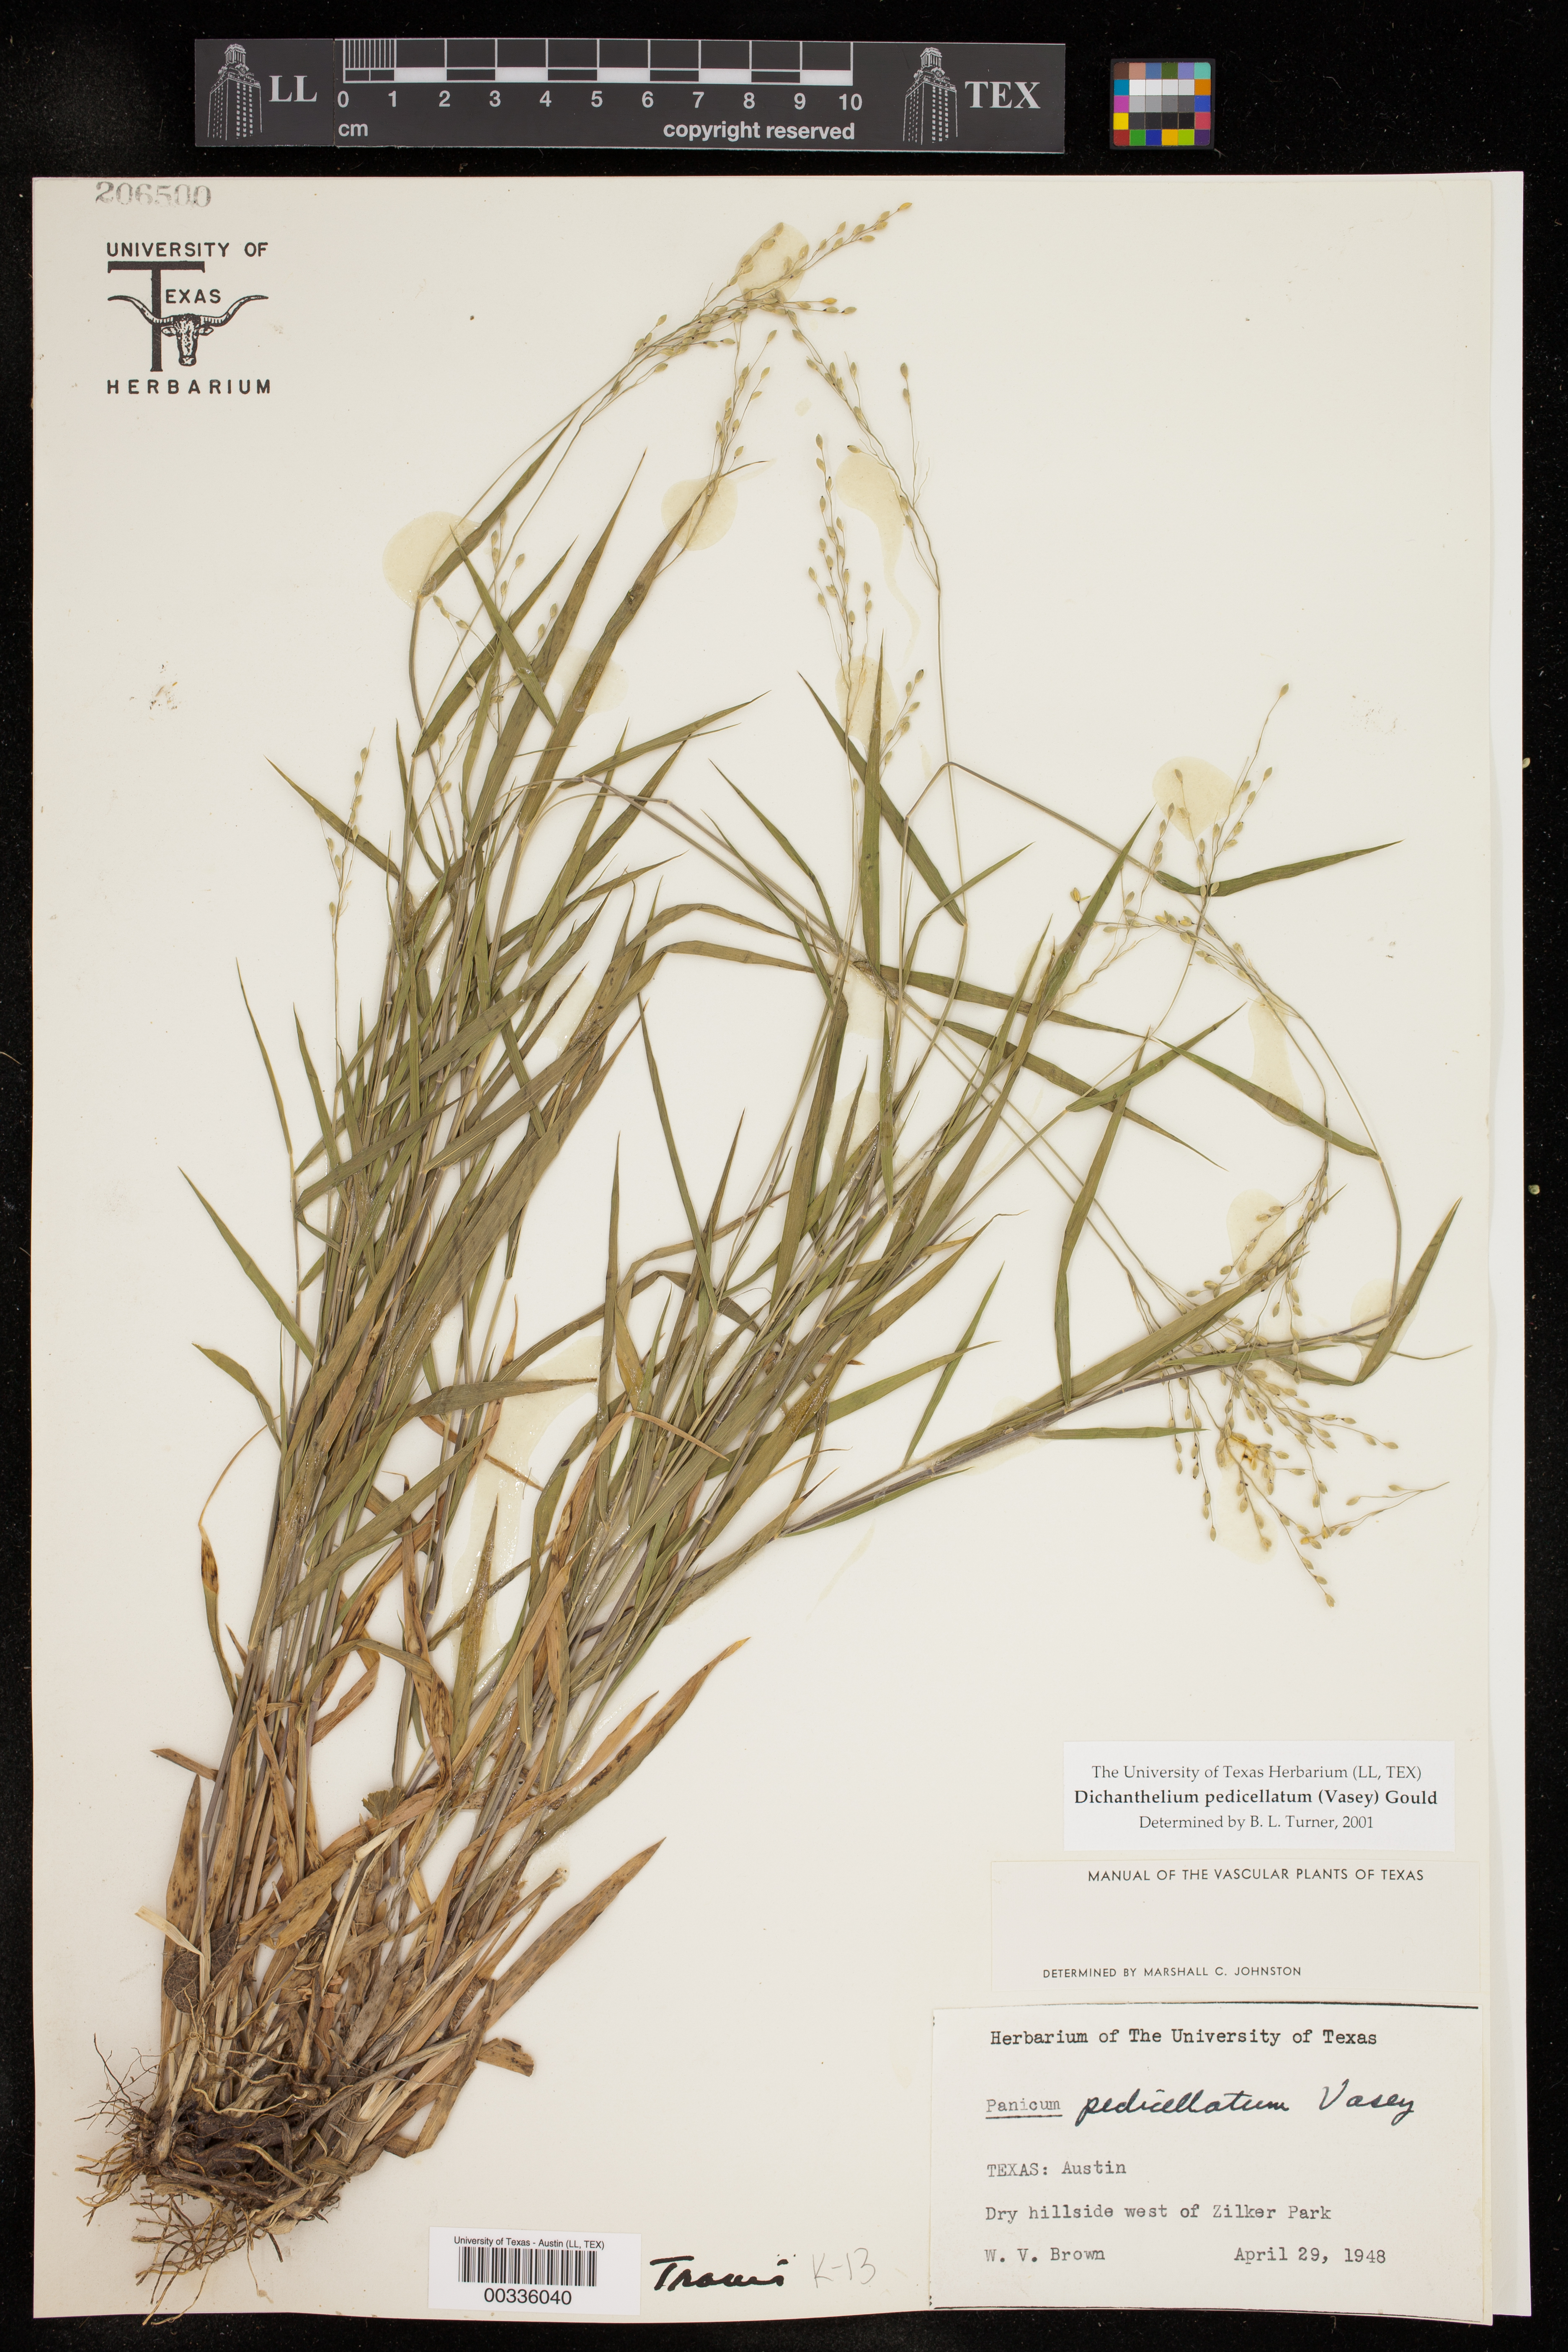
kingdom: Plantae
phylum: Tracheophyta
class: Liliopsida
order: Poales
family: Poaceae
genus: Dichanthelium
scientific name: Dichanthelium transiens
